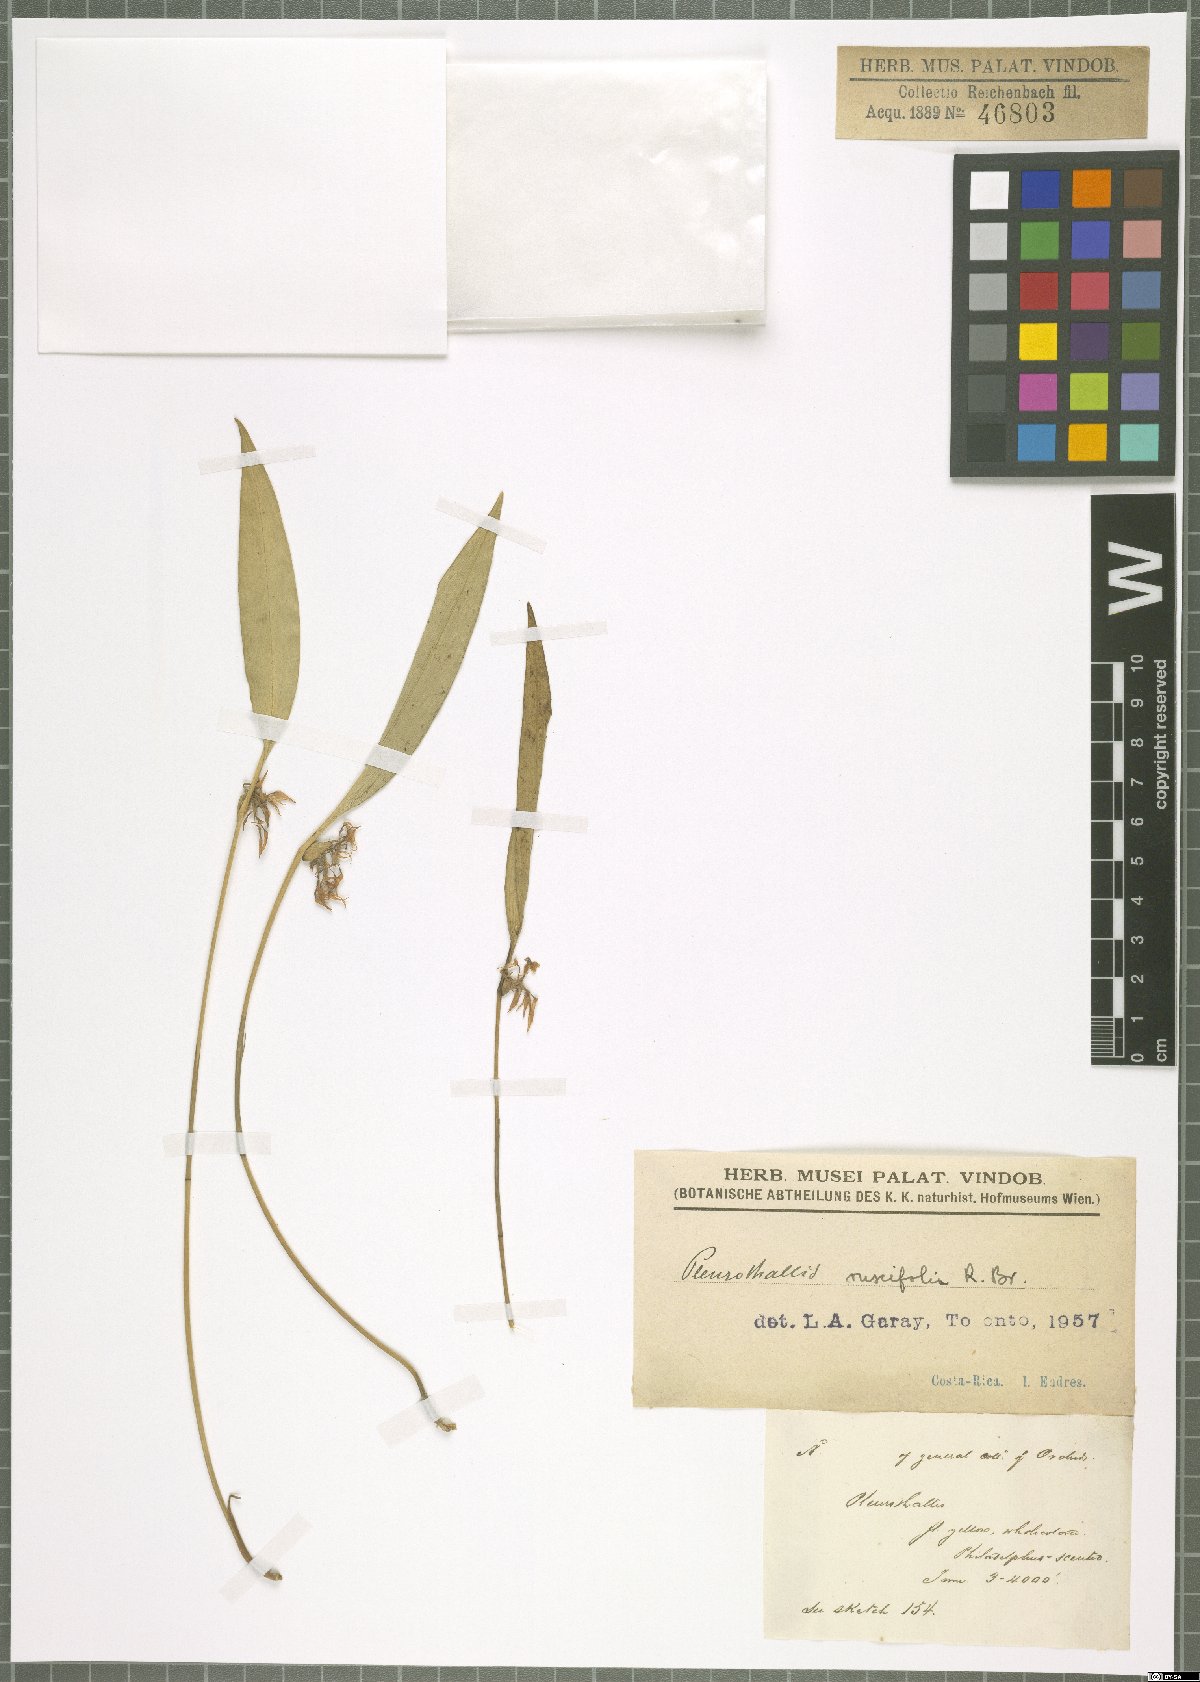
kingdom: Plantae
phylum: Tracheophyta
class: Liliopsida
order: Asparagales
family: Orchidaceae
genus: Pleurothallis
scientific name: Pleurothallis ruscifolia
